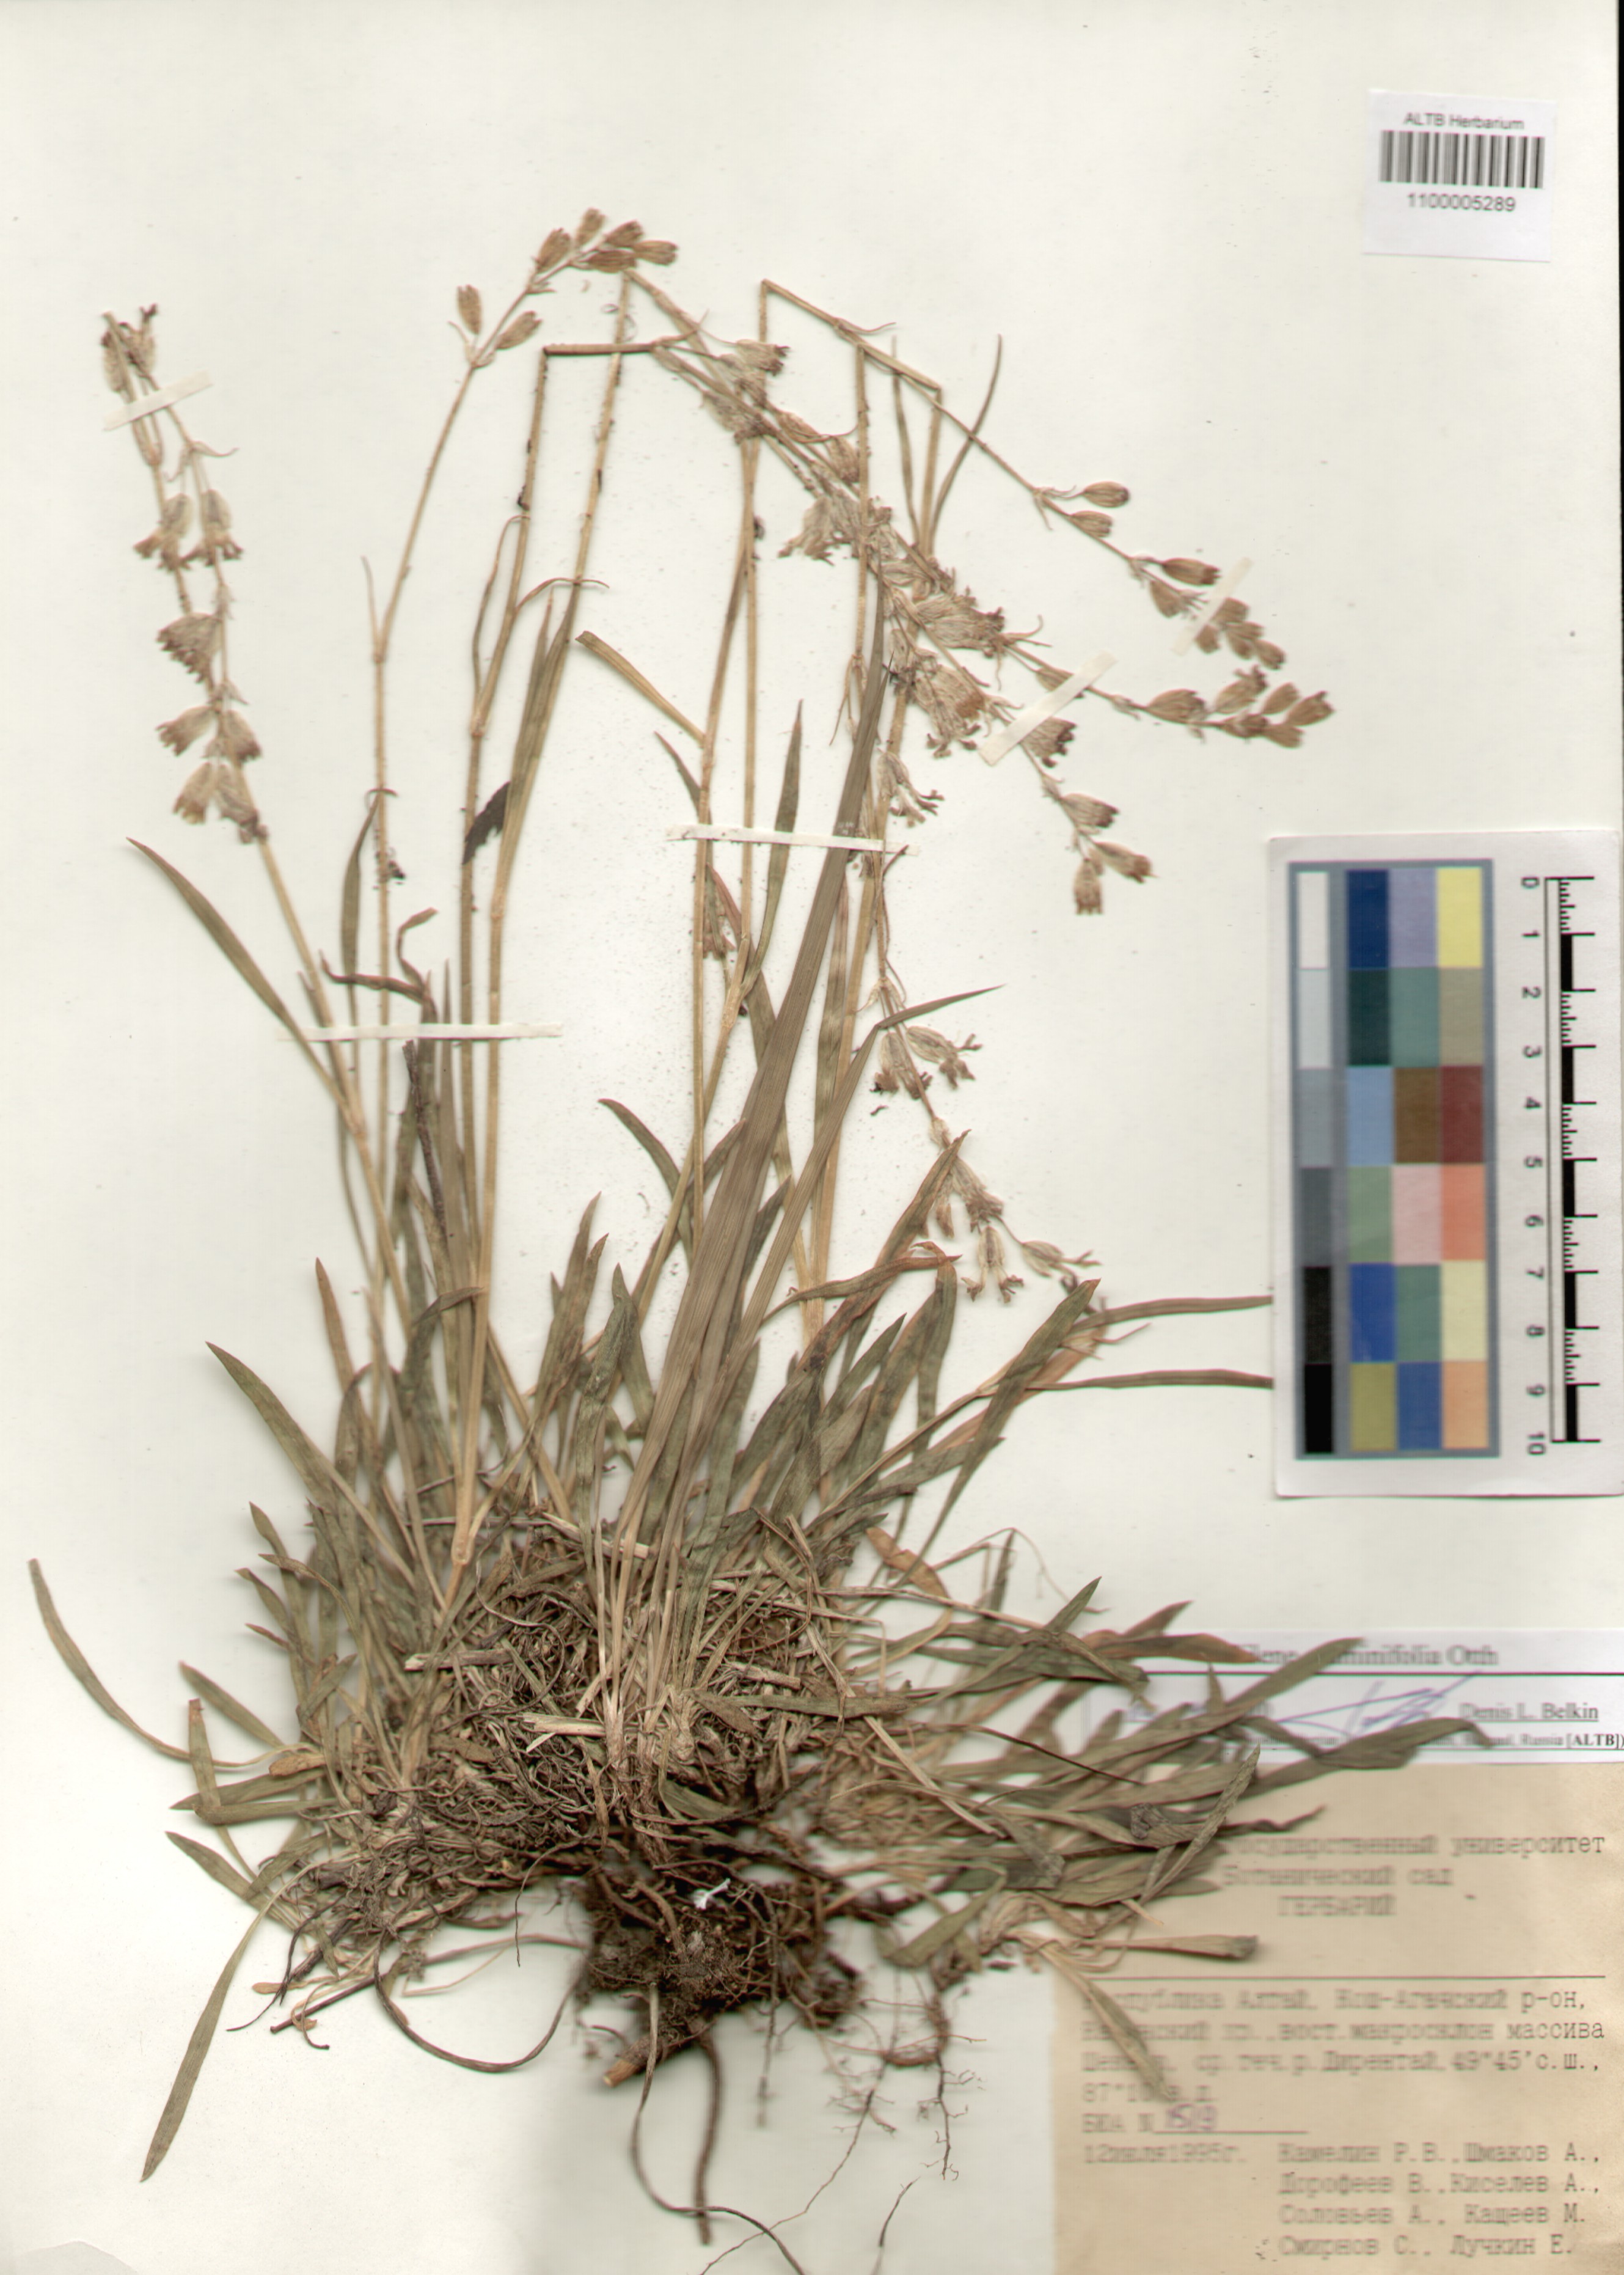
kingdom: Plantae
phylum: Tracheophyta
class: Magnoliopsida
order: Caryophyllales
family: Caryophyllaceae
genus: Silene
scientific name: Silene graminifolia
